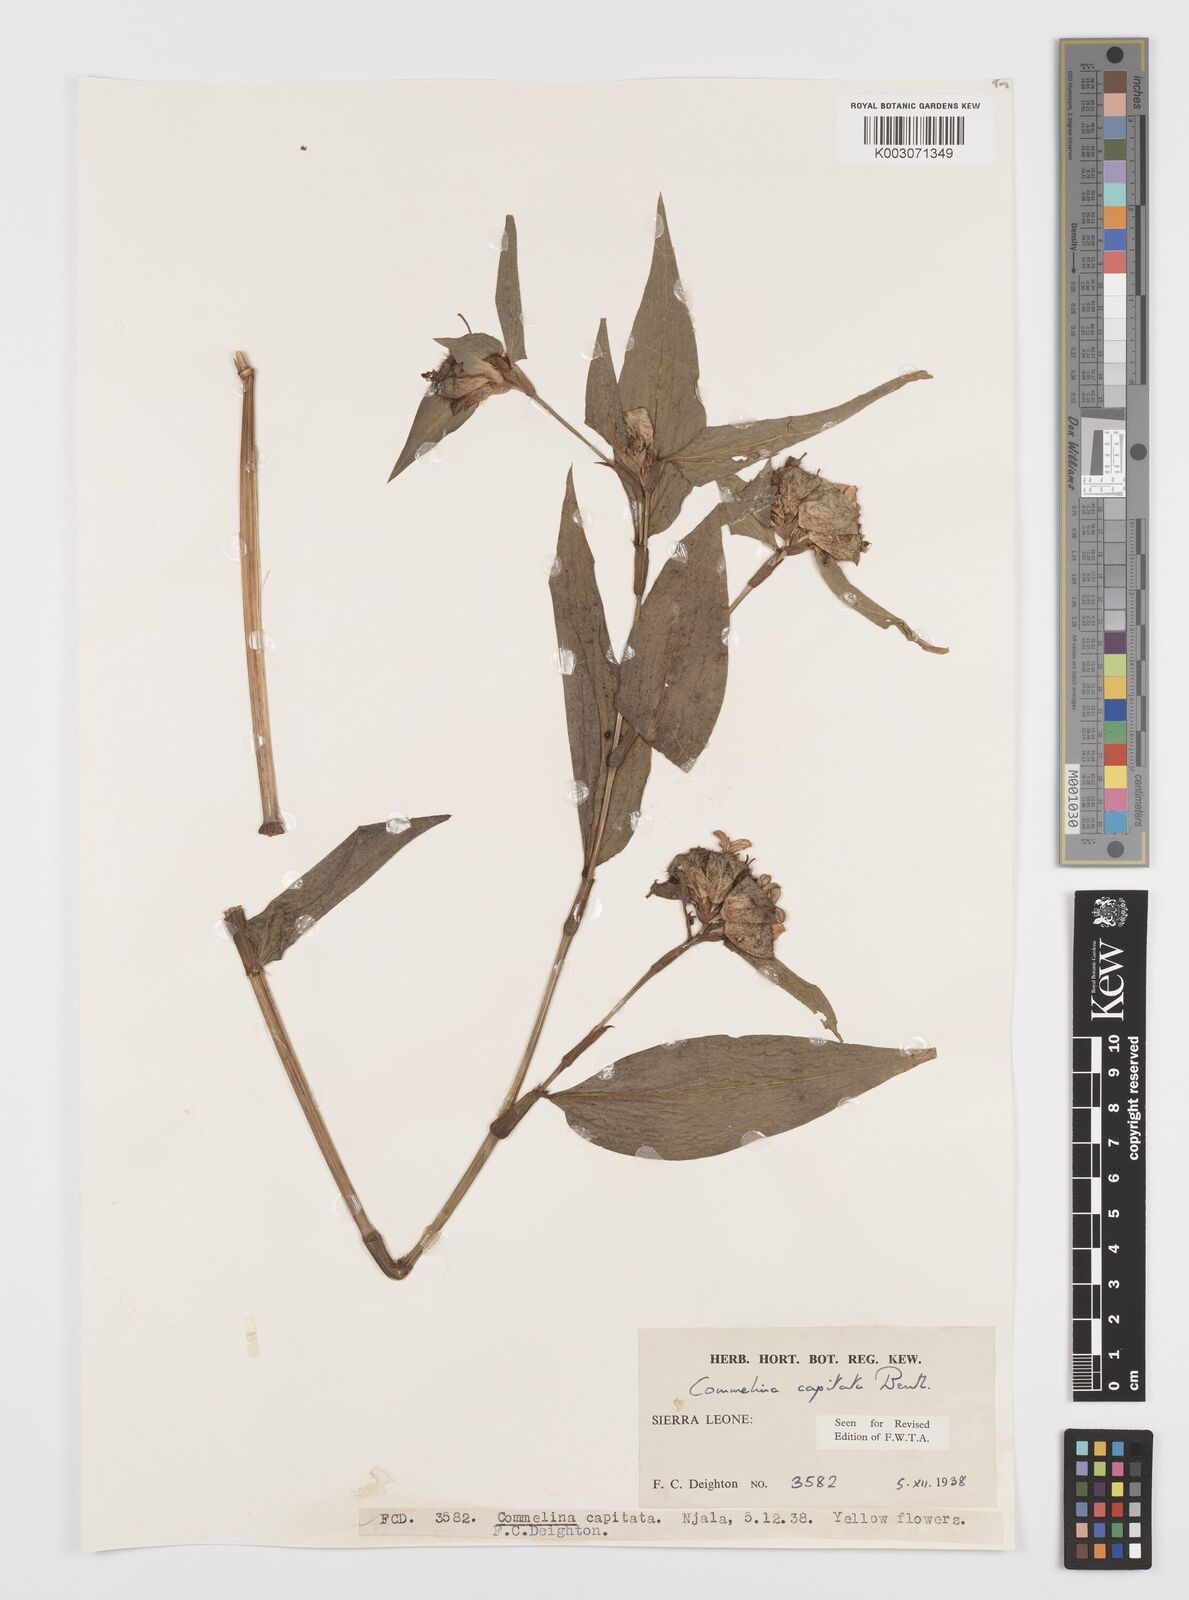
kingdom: Plantae
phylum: Tracheophyta
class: Liliopsida
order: Commelinales
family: Commelinaceae
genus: Commelina
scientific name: Commelina capitata
